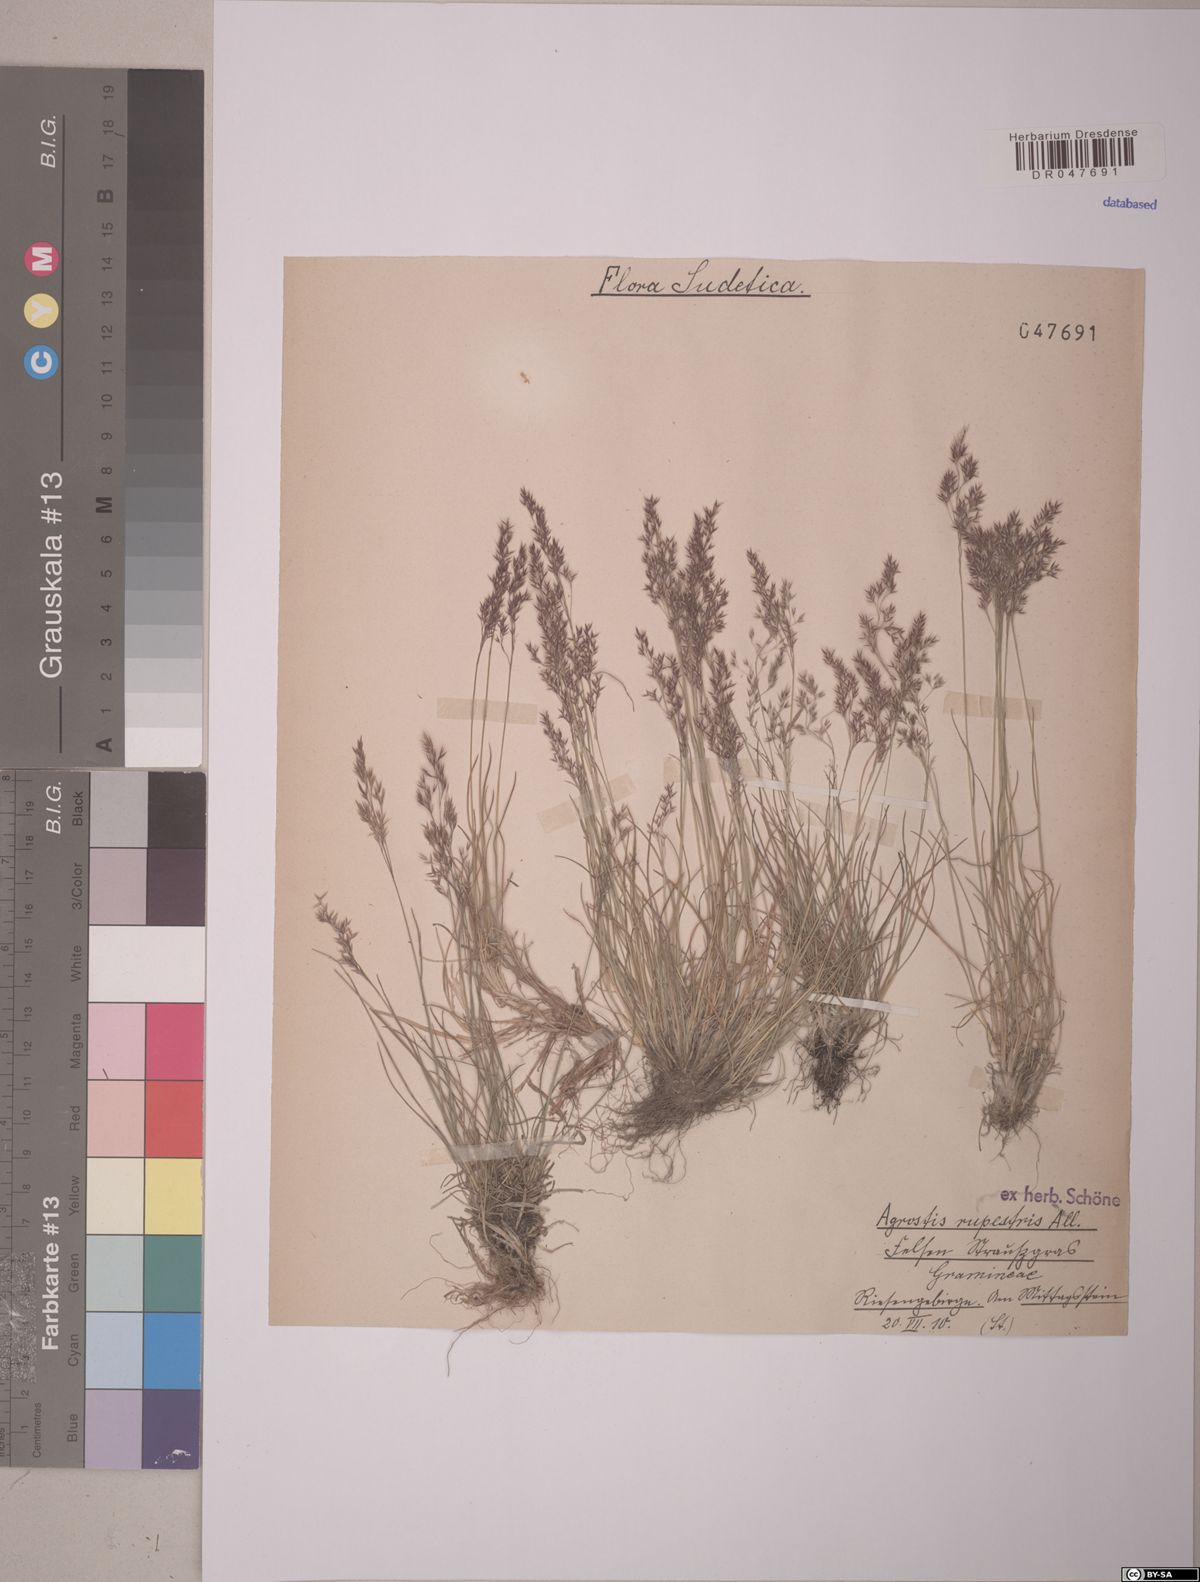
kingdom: Plantae
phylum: Tracheophyta
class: Liliopsida
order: Poales
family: Poaceae
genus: Agrostis
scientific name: Agrostis rupestris
